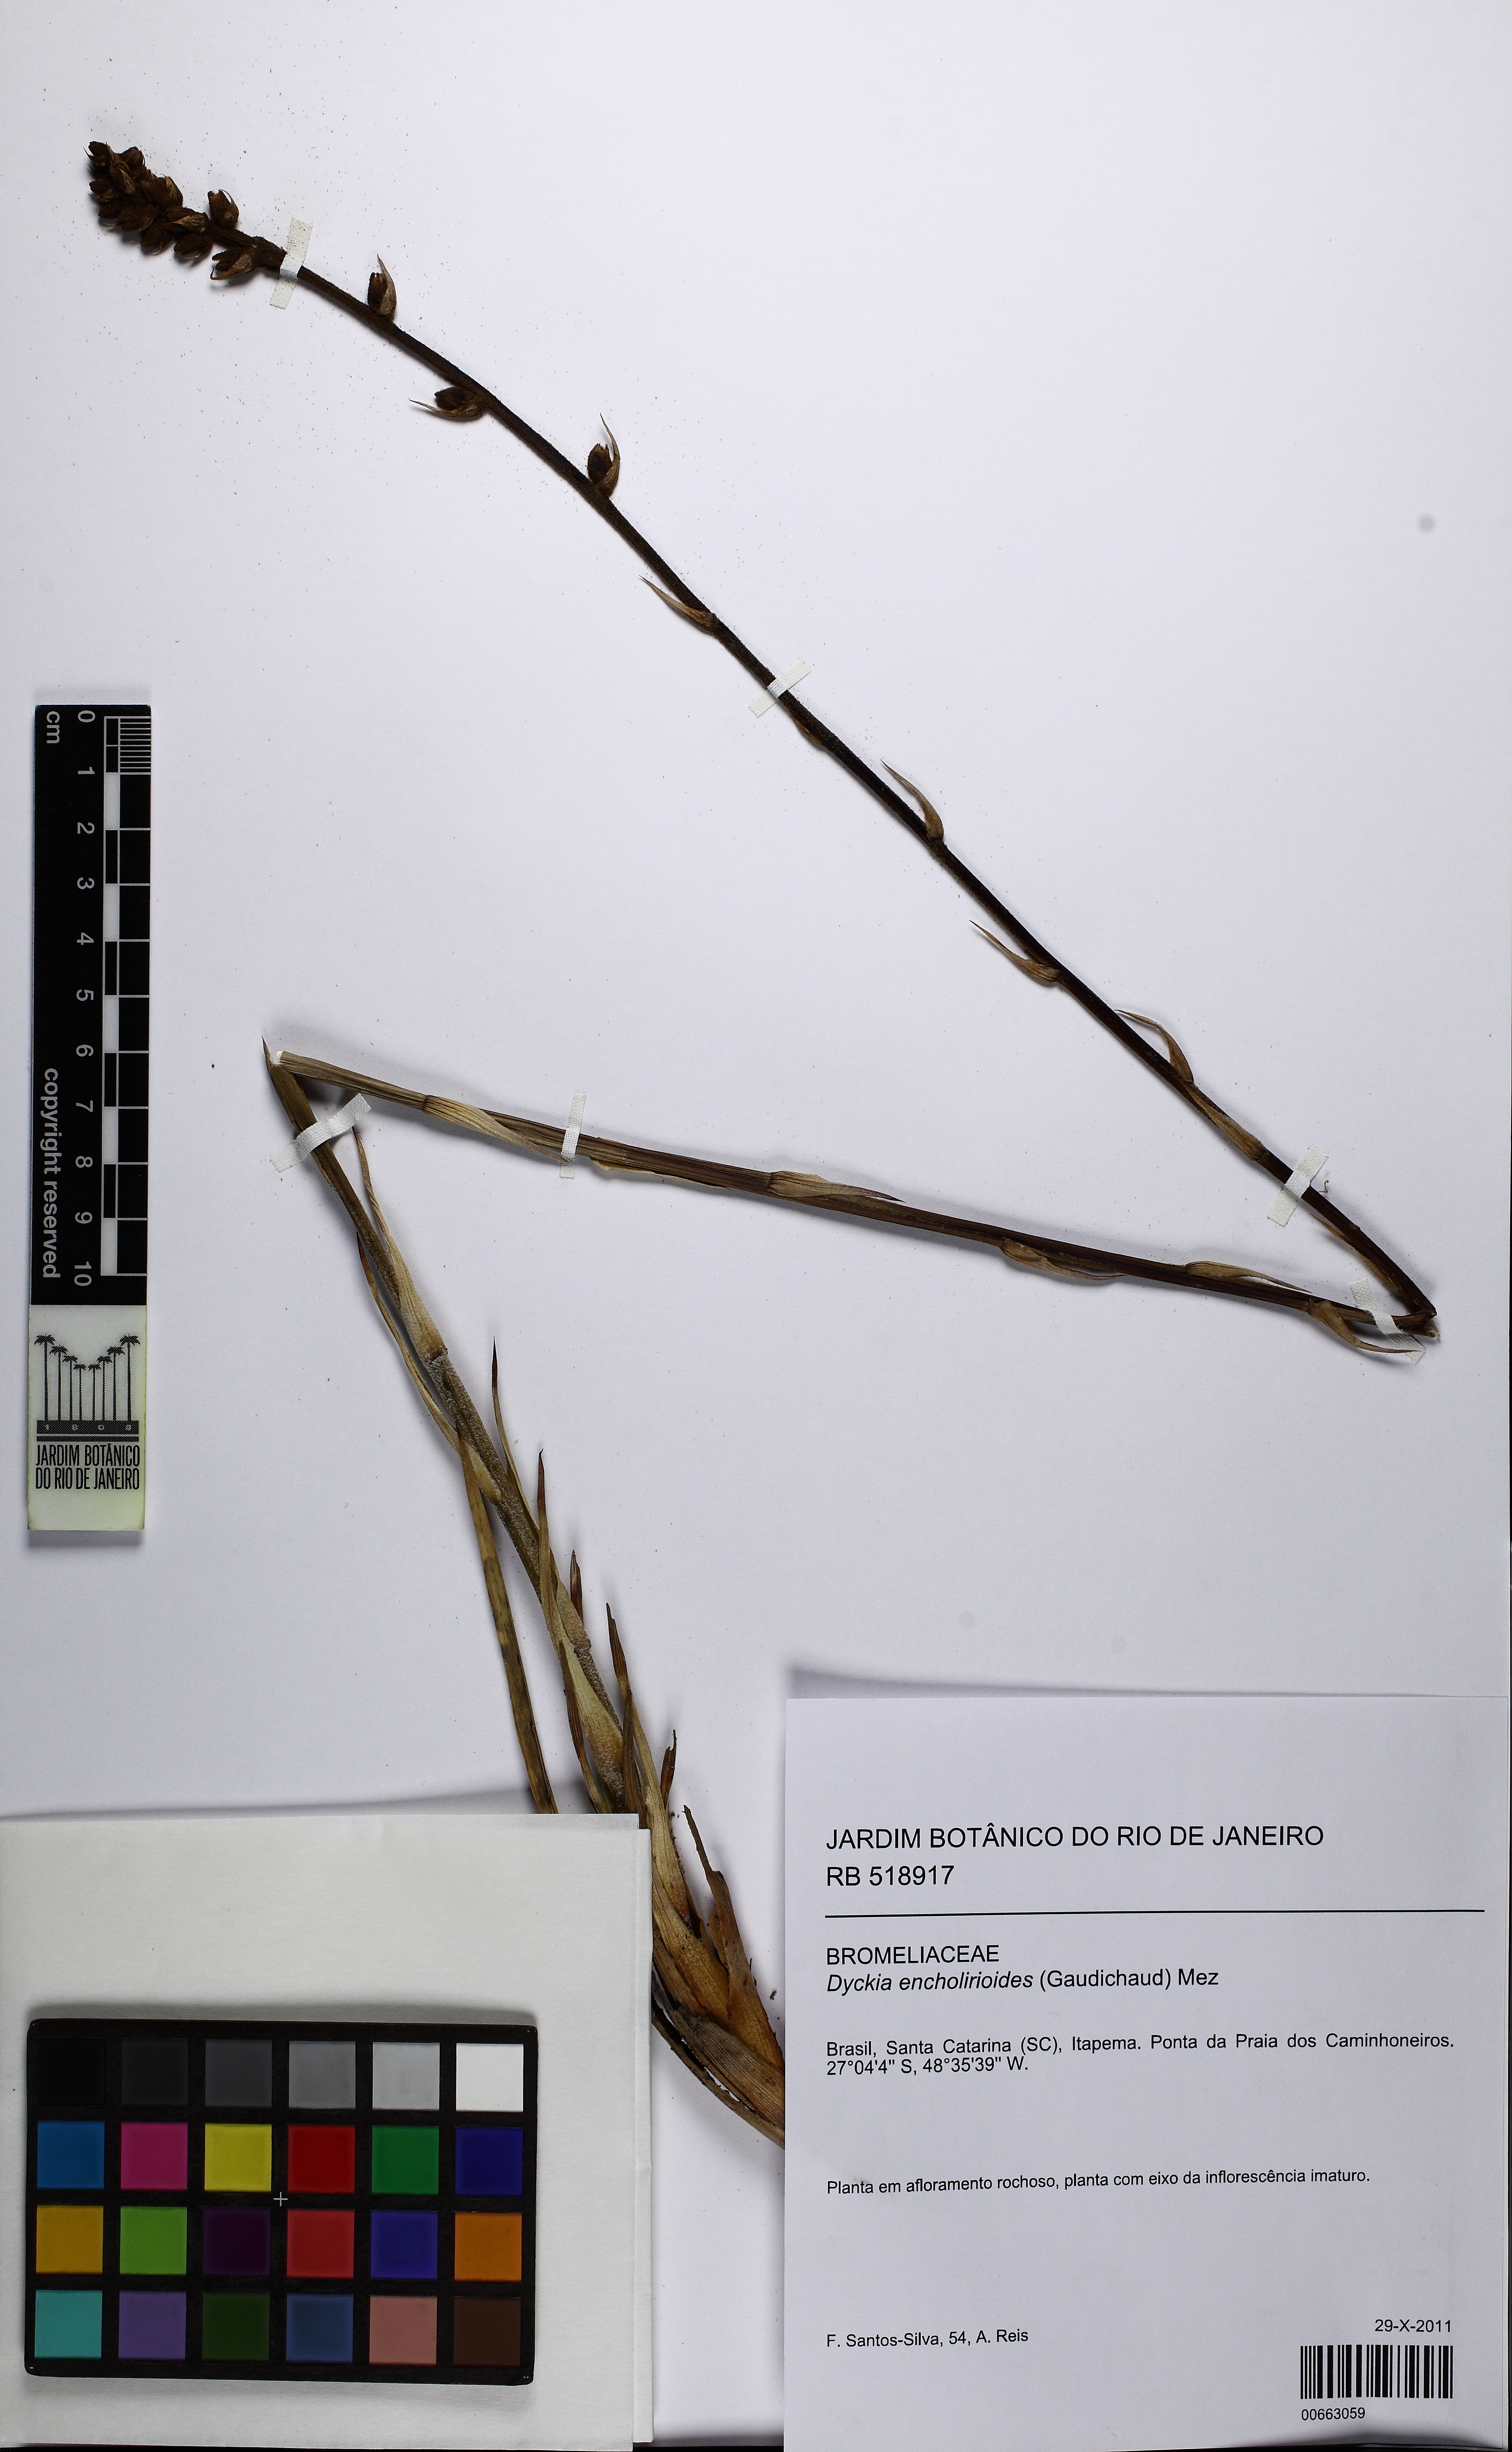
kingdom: Plantae
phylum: Tracheophyta
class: Liliopsida
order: Poales
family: Bromeliaceae
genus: Dyckia
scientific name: Dyckia encholirioides
